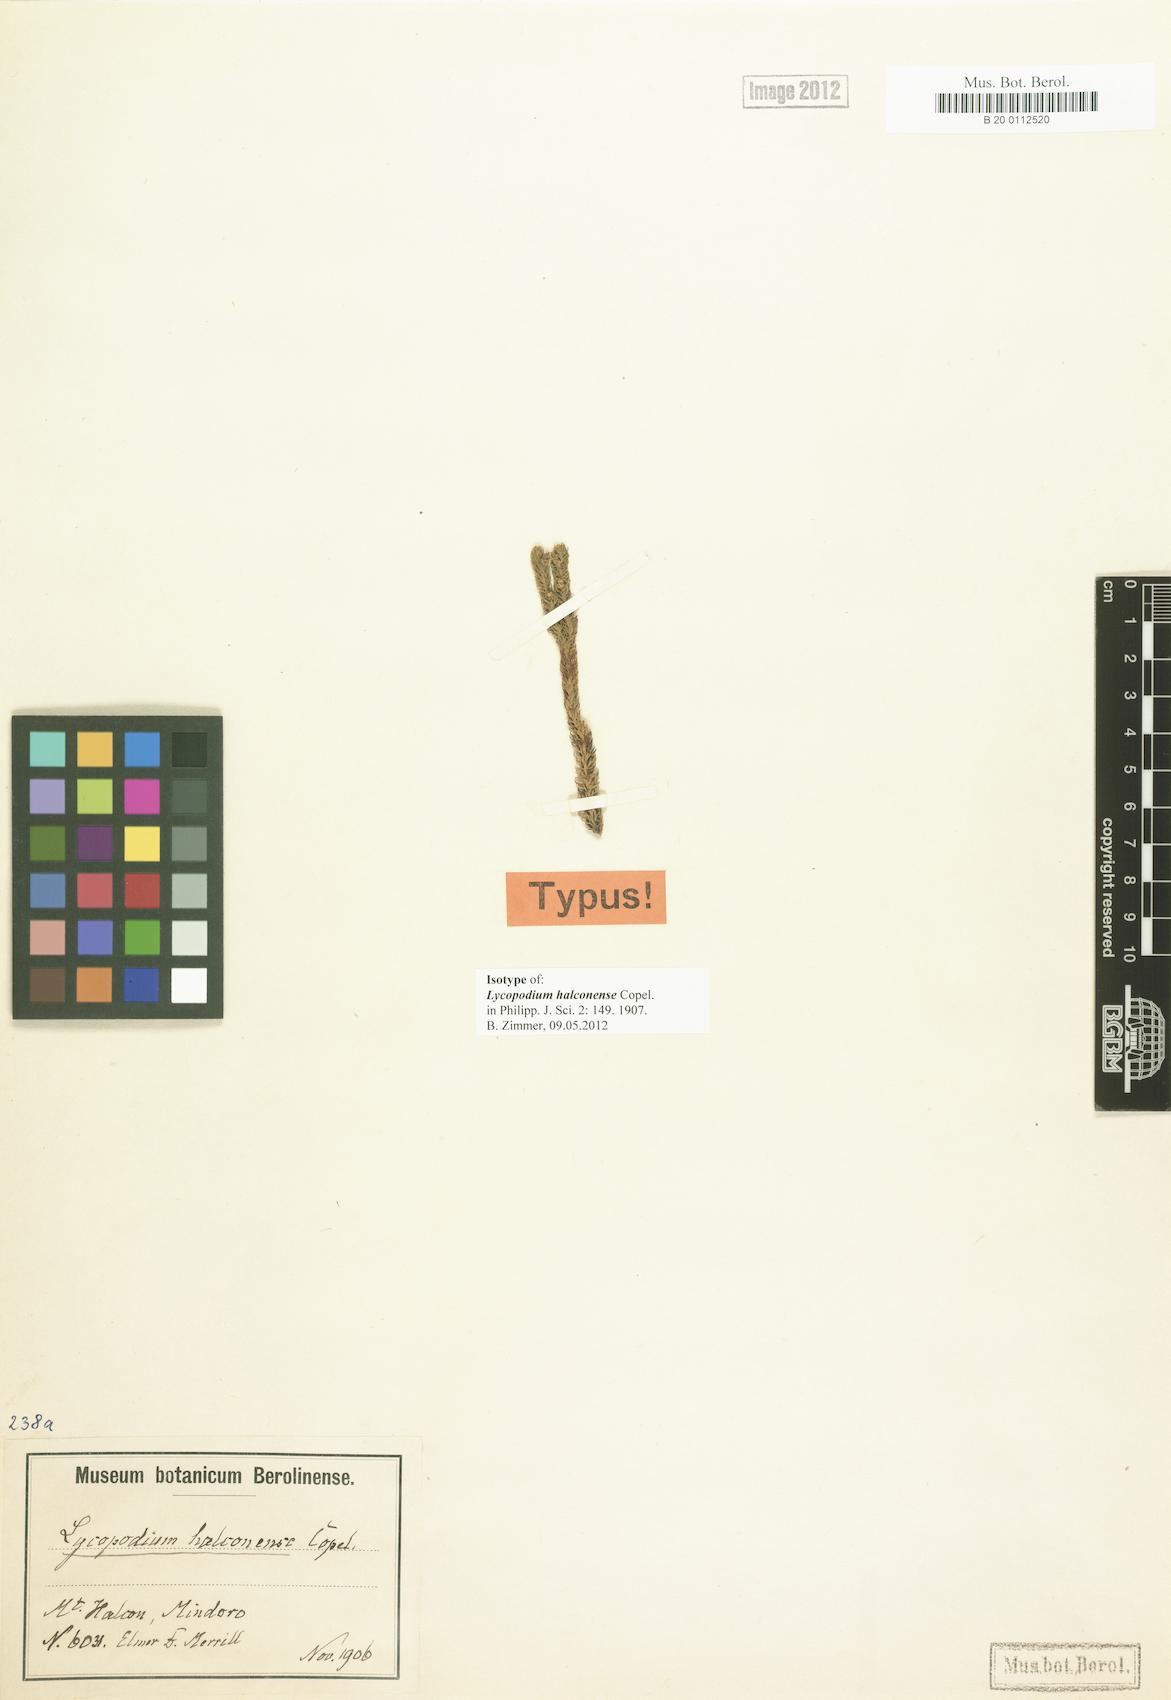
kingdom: Plantae
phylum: Tracheophyta
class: Lycopodiopsida
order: Lycopodiales
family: Lycopodiaceae
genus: Lateristachys
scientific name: Lateristachys halconensis
